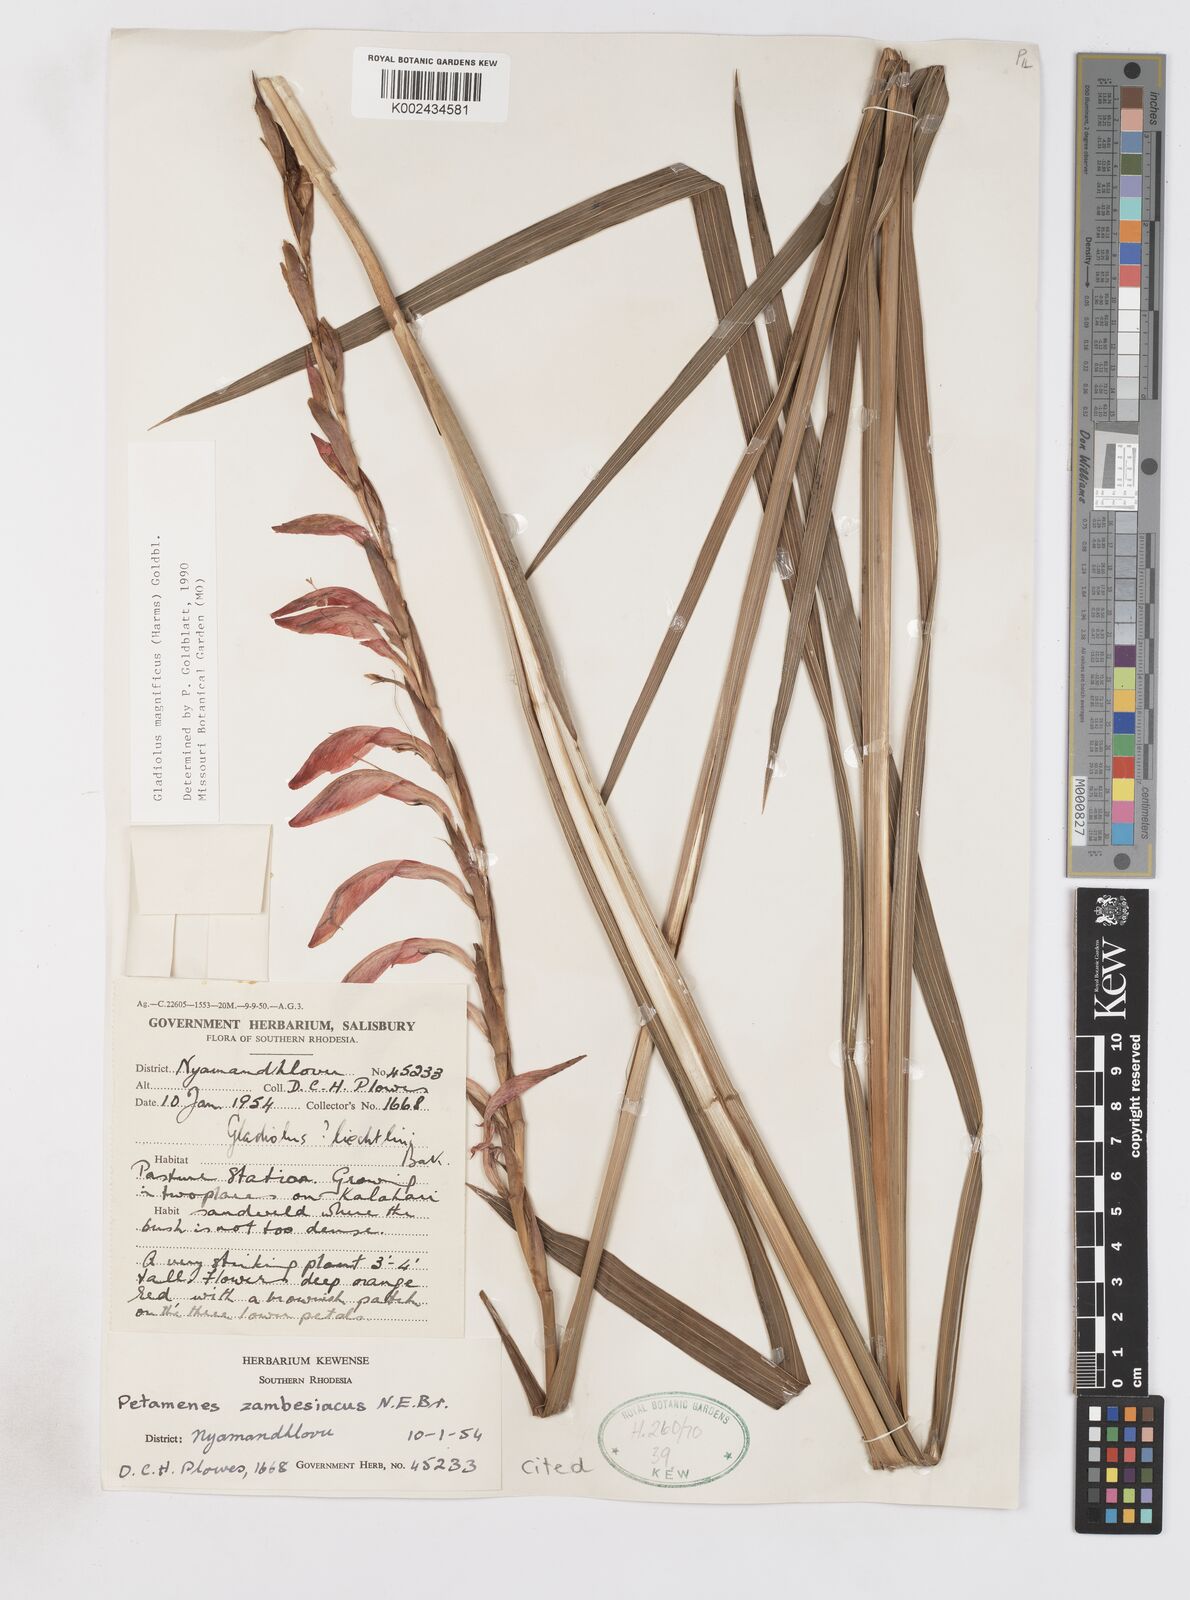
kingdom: Plantae
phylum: Tracheophyta
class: Liliopsida
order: Asparagales
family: Iridaceae
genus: Gladiolus
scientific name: Gladiolus magnificus
